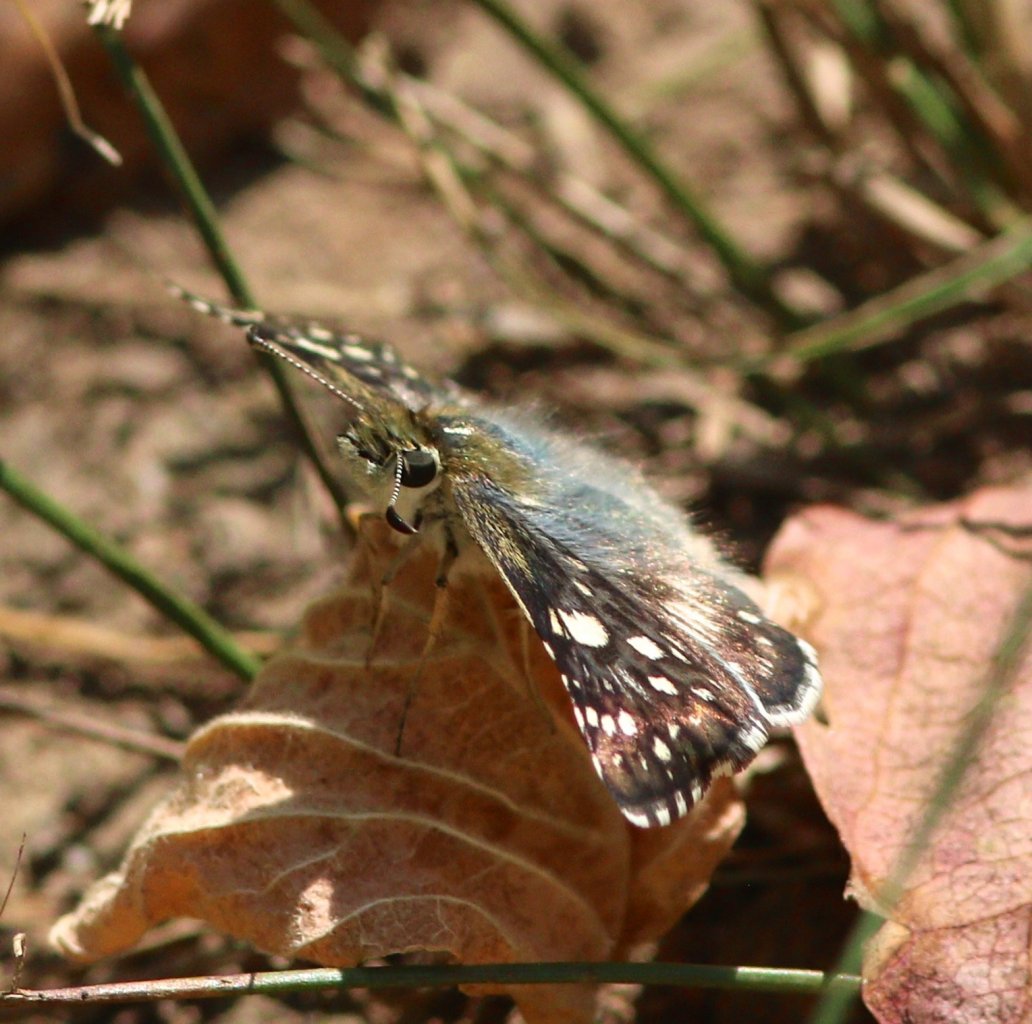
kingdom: Animalia
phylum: Arthropoda
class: Insecta
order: Lepidoptera
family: Hesperiidae
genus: Pyrgus
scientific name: Pyrgus communis
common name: Common Checkered-Skipper
